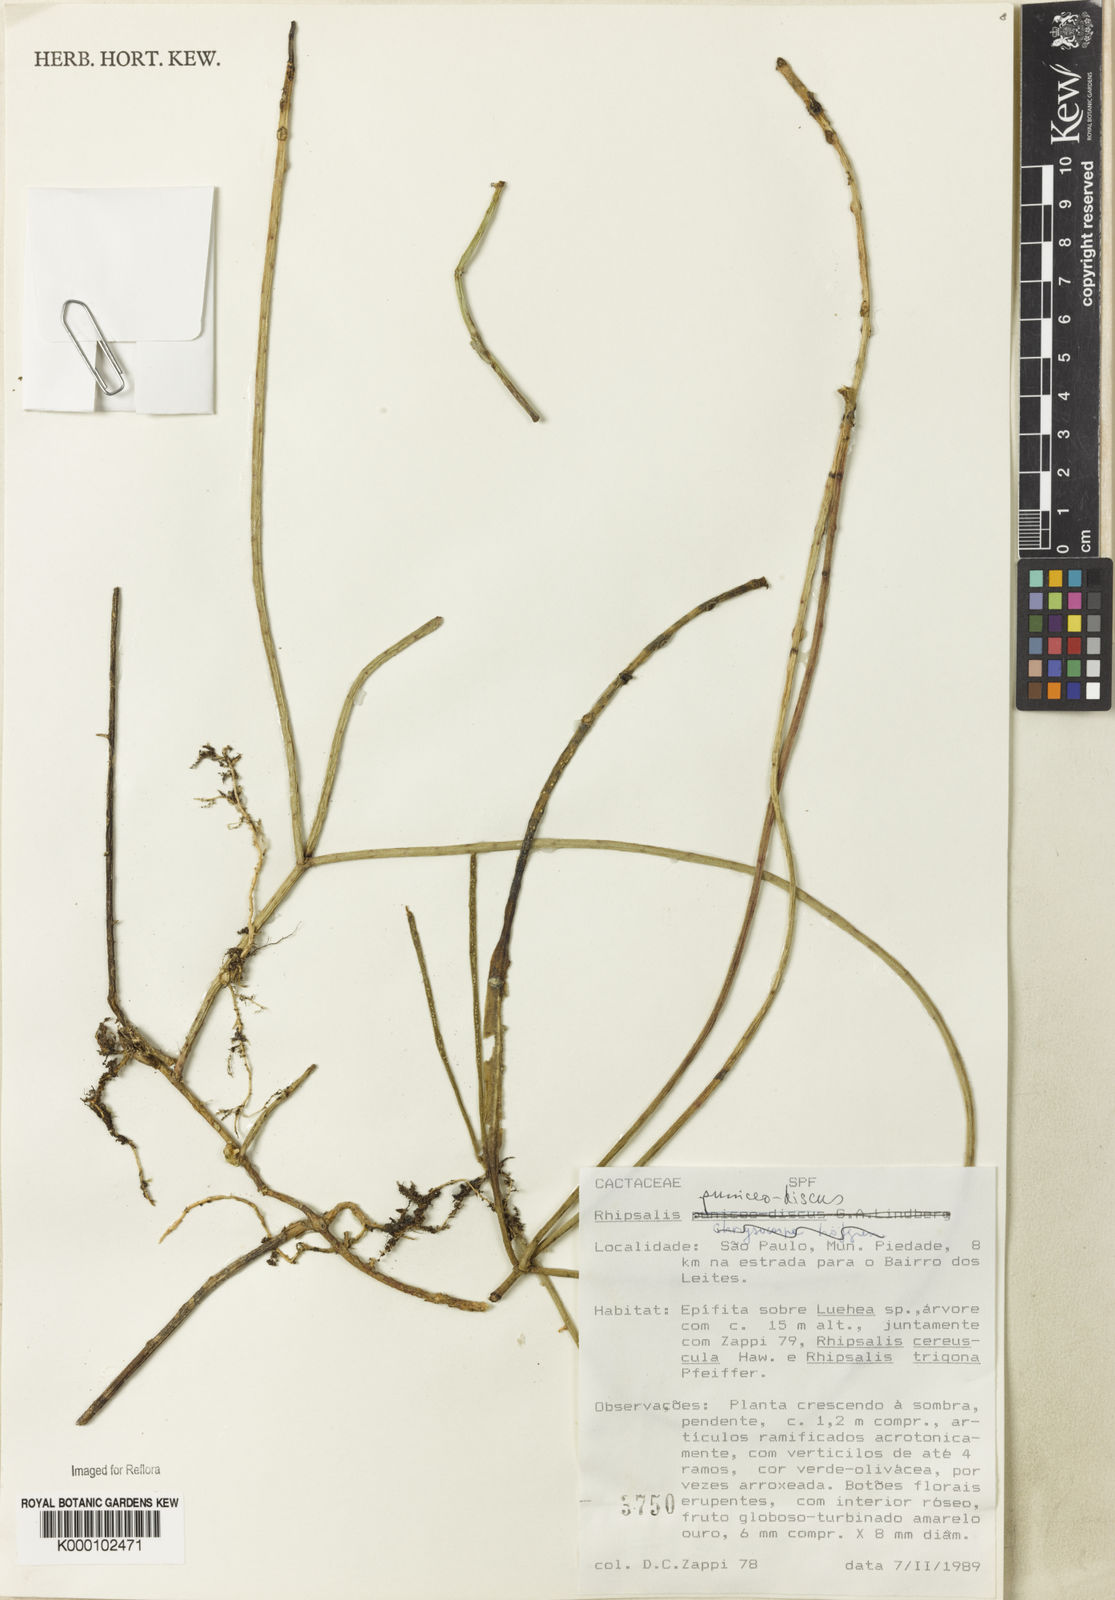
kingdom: Plantae
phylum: Tracheophyta
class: Magnoliopsida
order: Caryophyllales
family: Cactaceae
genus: Rhipsalis
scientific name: Rhipsalis puniceodiscus
